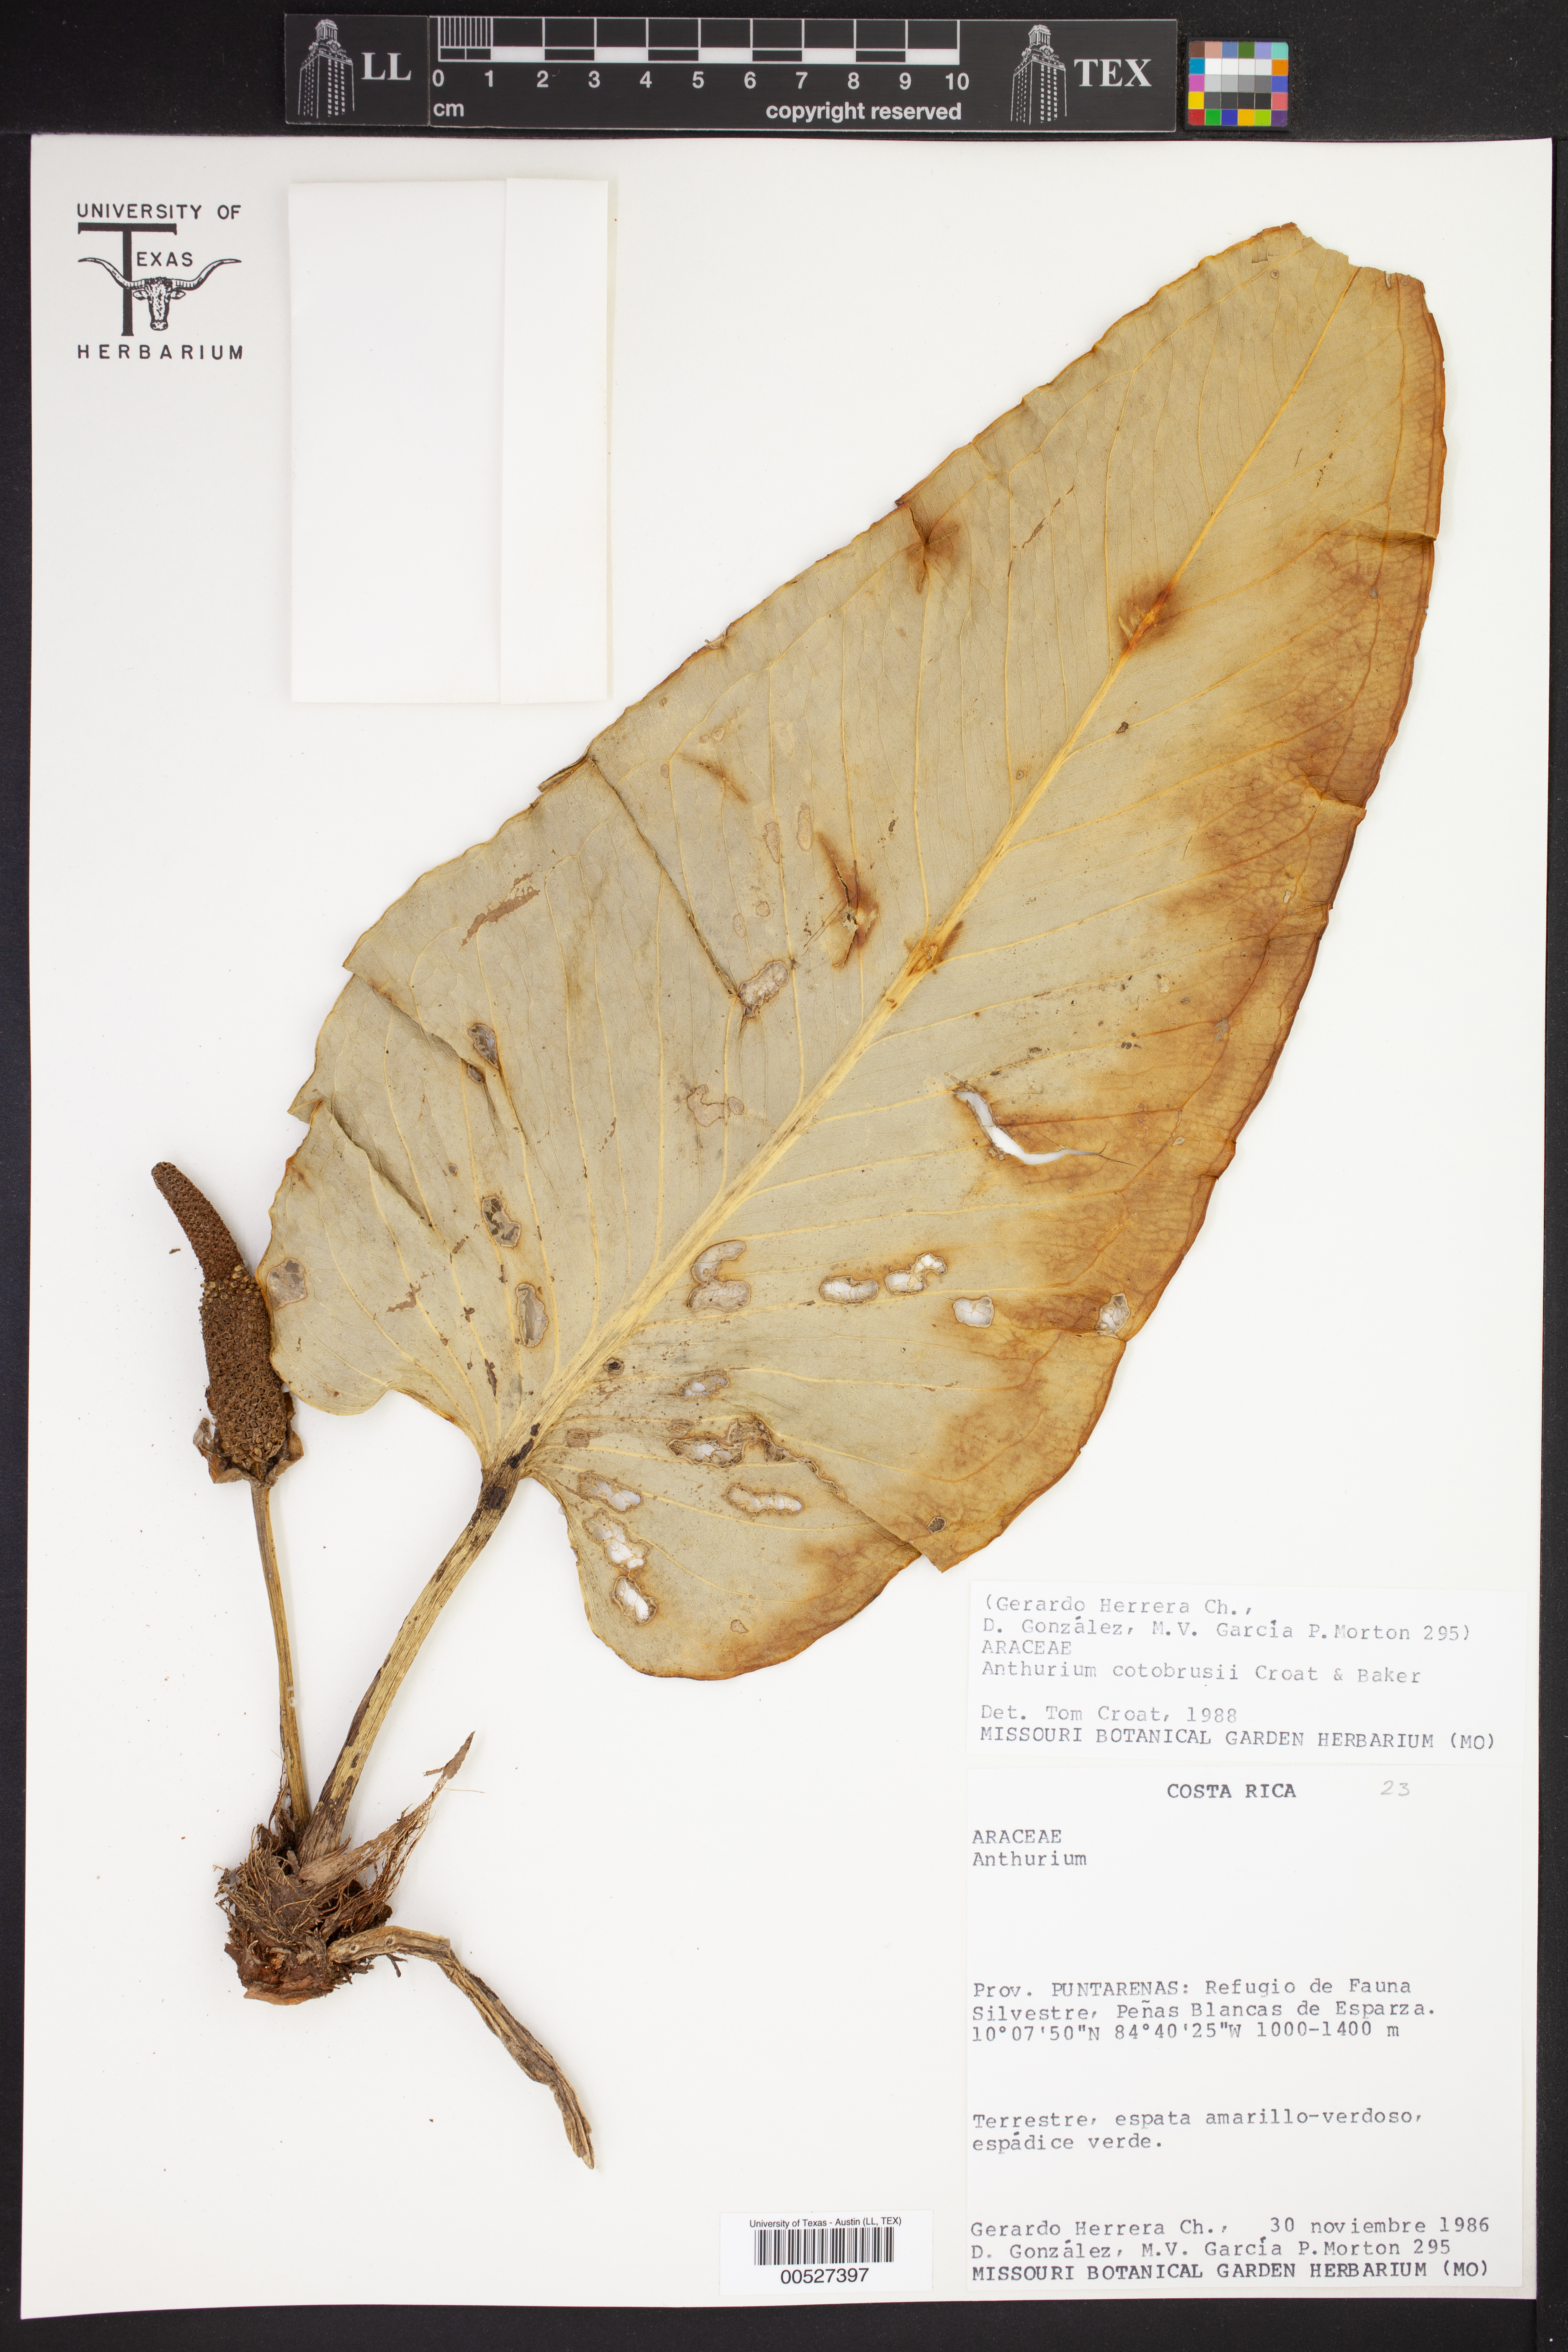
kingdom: Plantae
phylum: Tracheophyta
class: Liliopsida
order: Alismatales
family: Araceae
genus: Anthurium
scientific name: Anthurium cotobrusii
